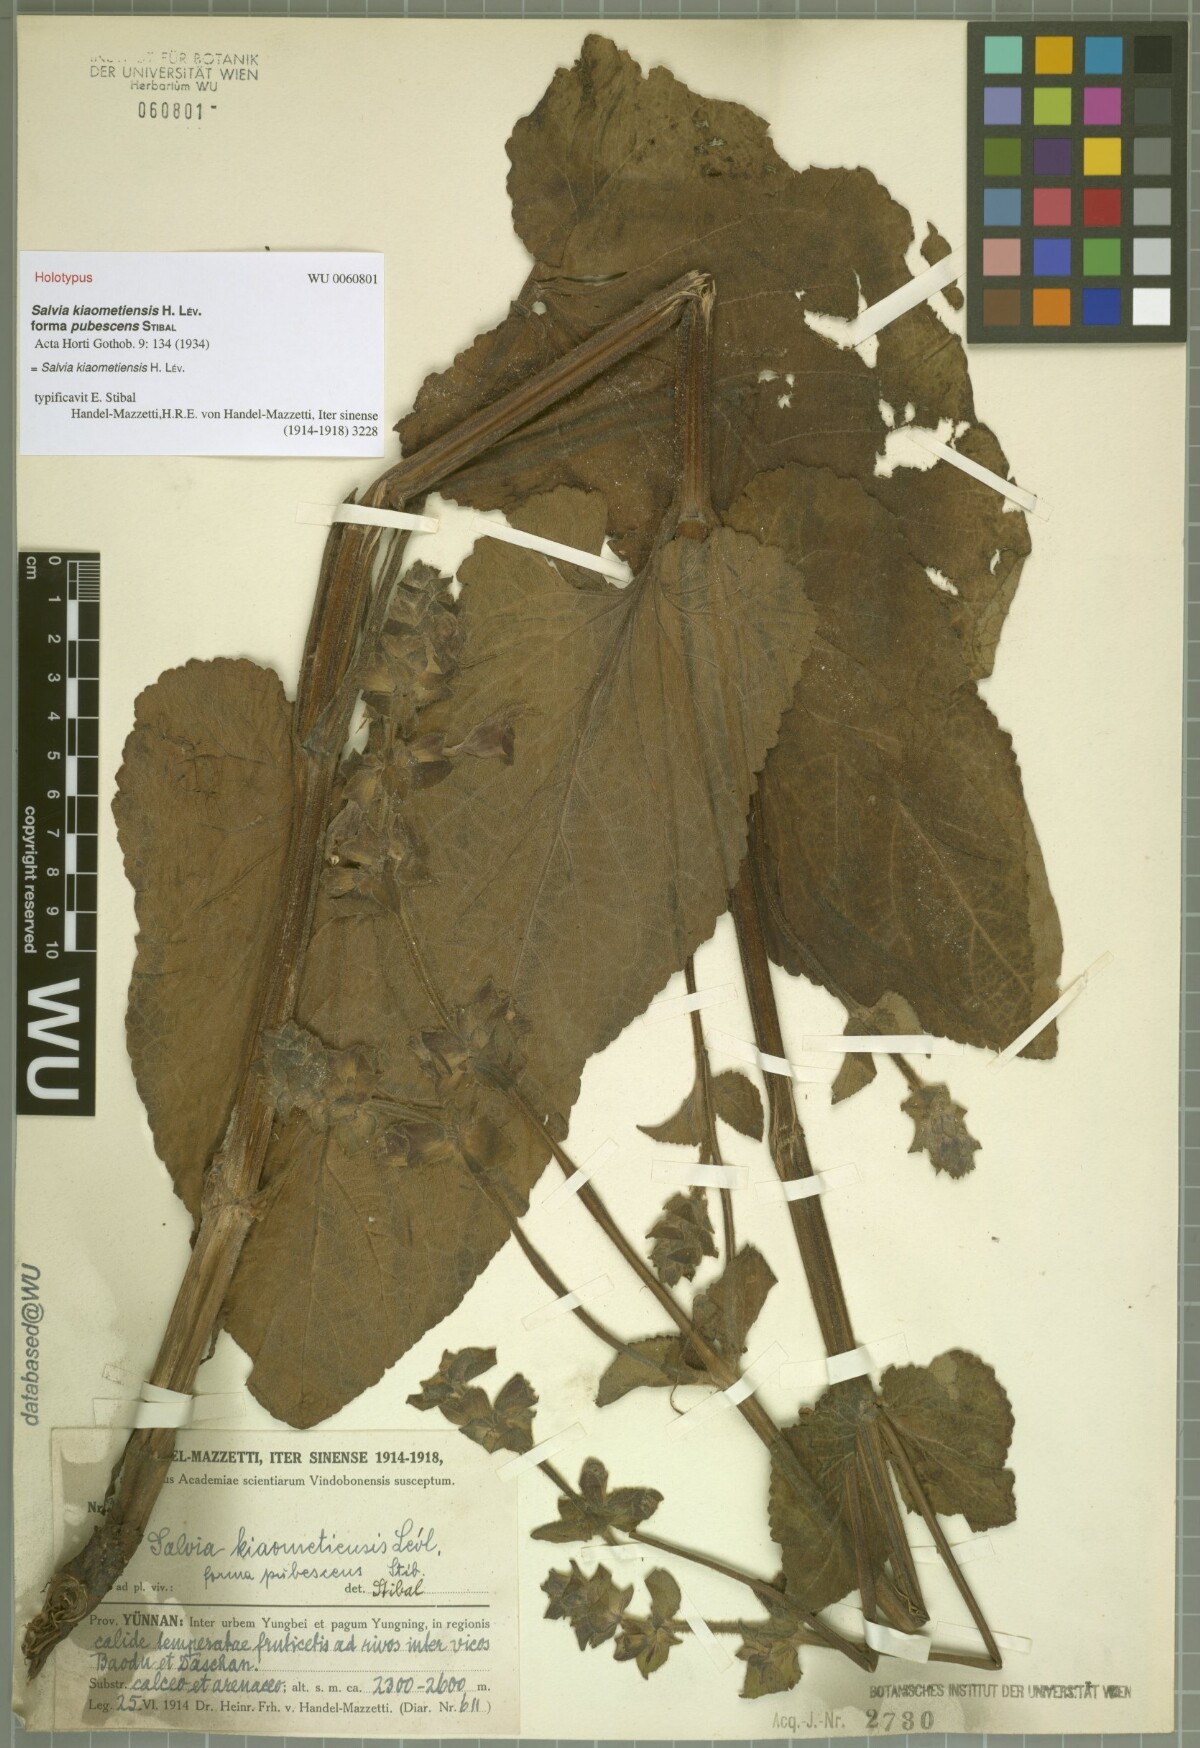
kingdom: Plantae
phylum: Tracheophyta
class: Magnoliopsida
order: Lamiales
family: Lamiaceae
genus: Salvia
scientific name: Salvia kiaometiensis
